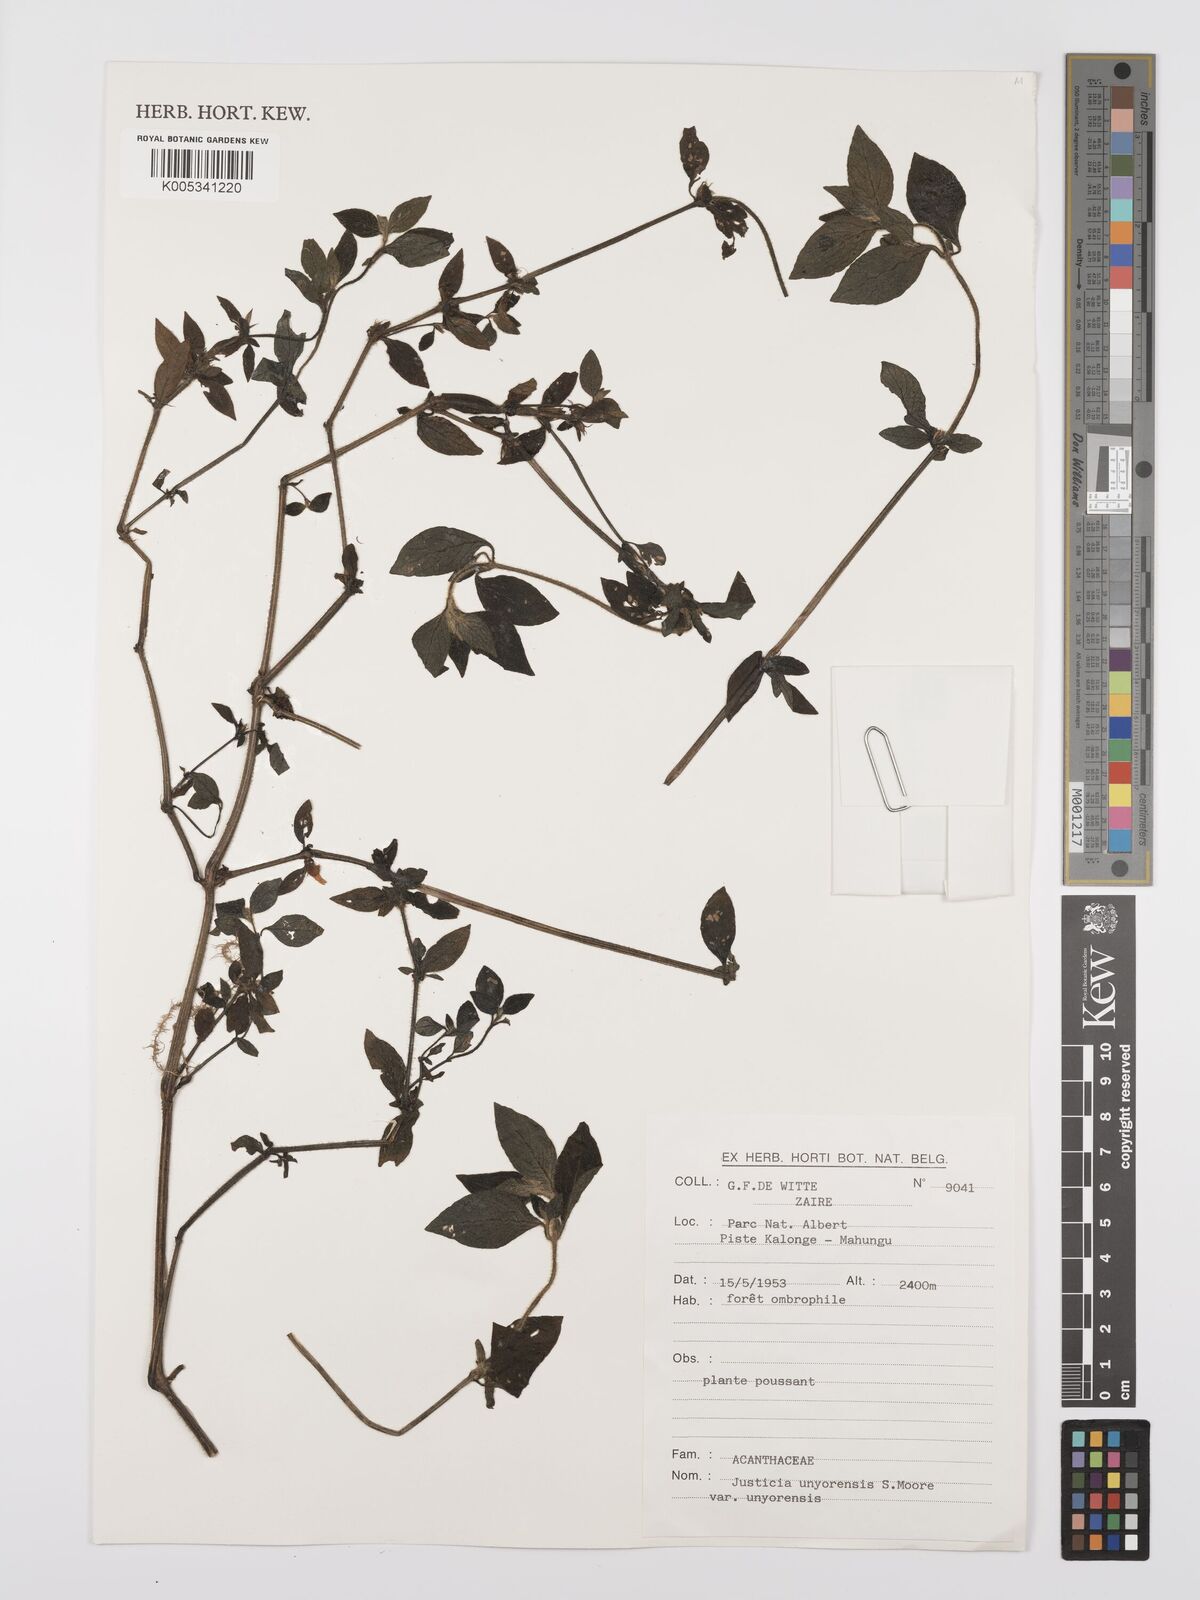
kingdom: Plantae
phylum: Tracheophyta
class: Magnoliopsida
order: Lamiales
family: Acanthaceae
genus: Justicia
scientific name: Justicia unyorensis
